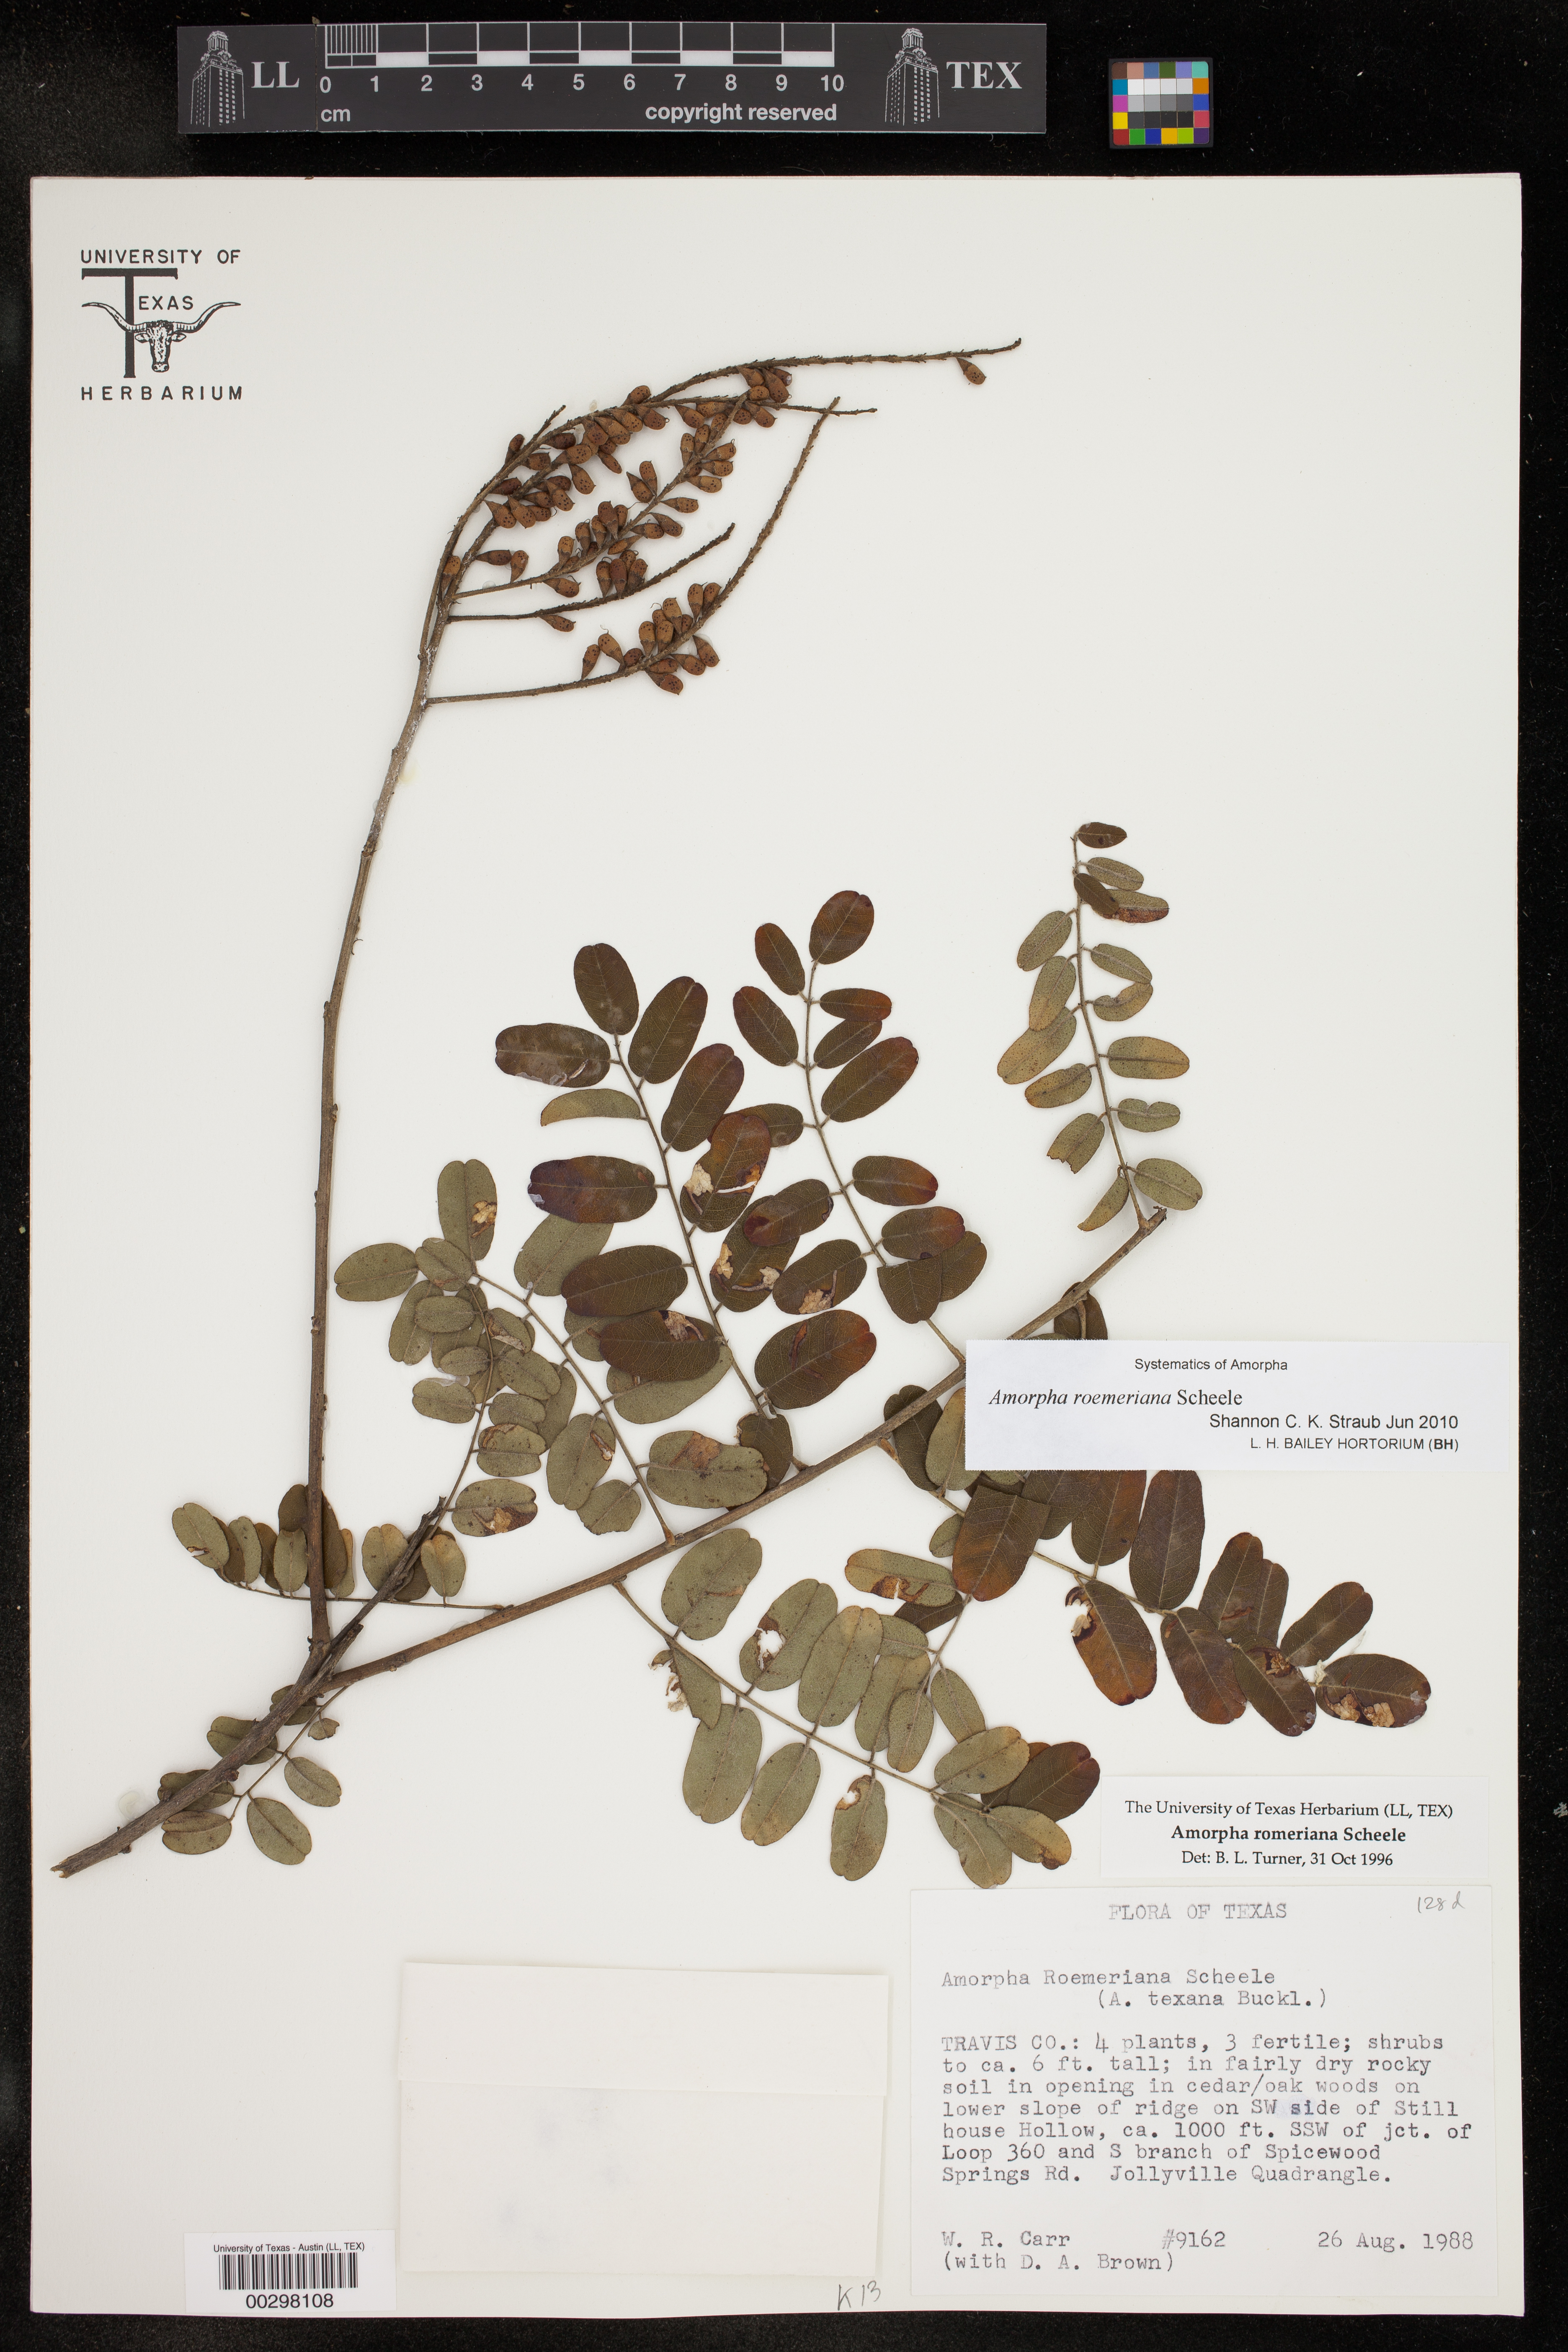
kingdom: Plantae
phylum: Tracheophyta
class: Magnoliopsida
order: Fabales
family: Fabaceae
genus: Amorpha
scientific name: Amorpha roemeriana
